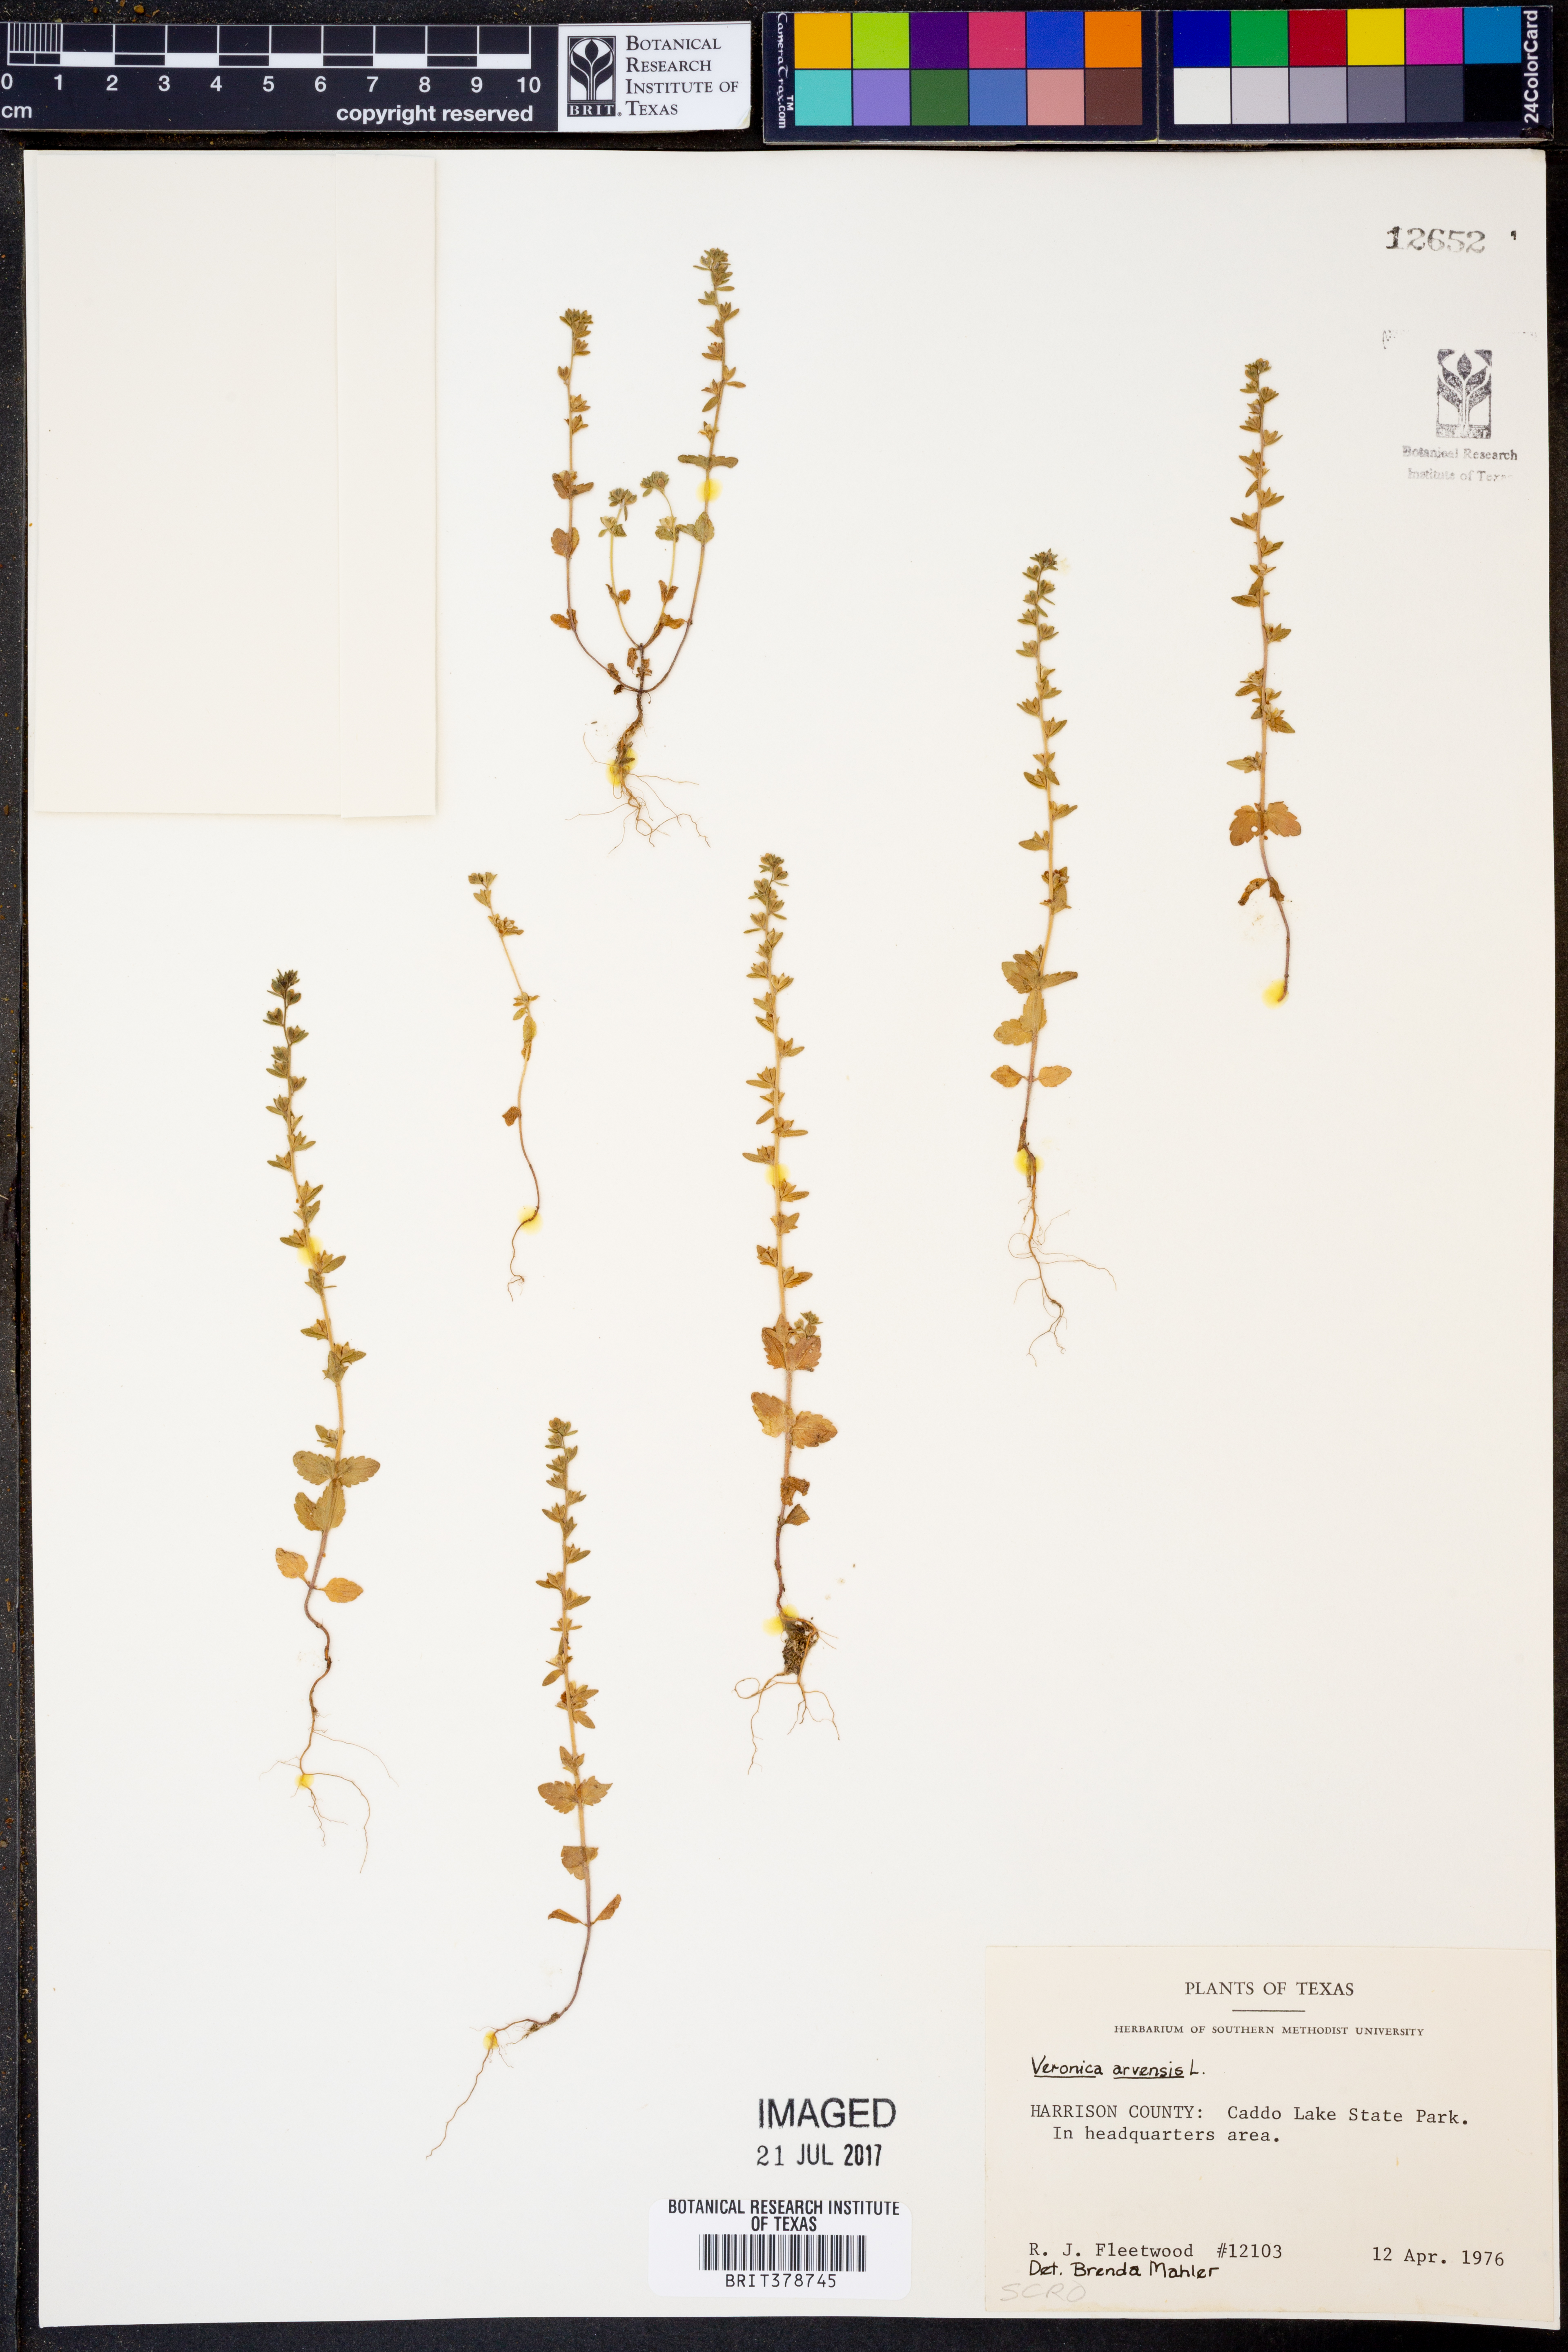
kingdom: Plantae
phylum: Tracheophyta
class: Magnoliopsida
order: Lamiales
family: Plantaginaceae
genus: Veronica
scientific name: Veronica arvensis
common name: Corn speedwell
